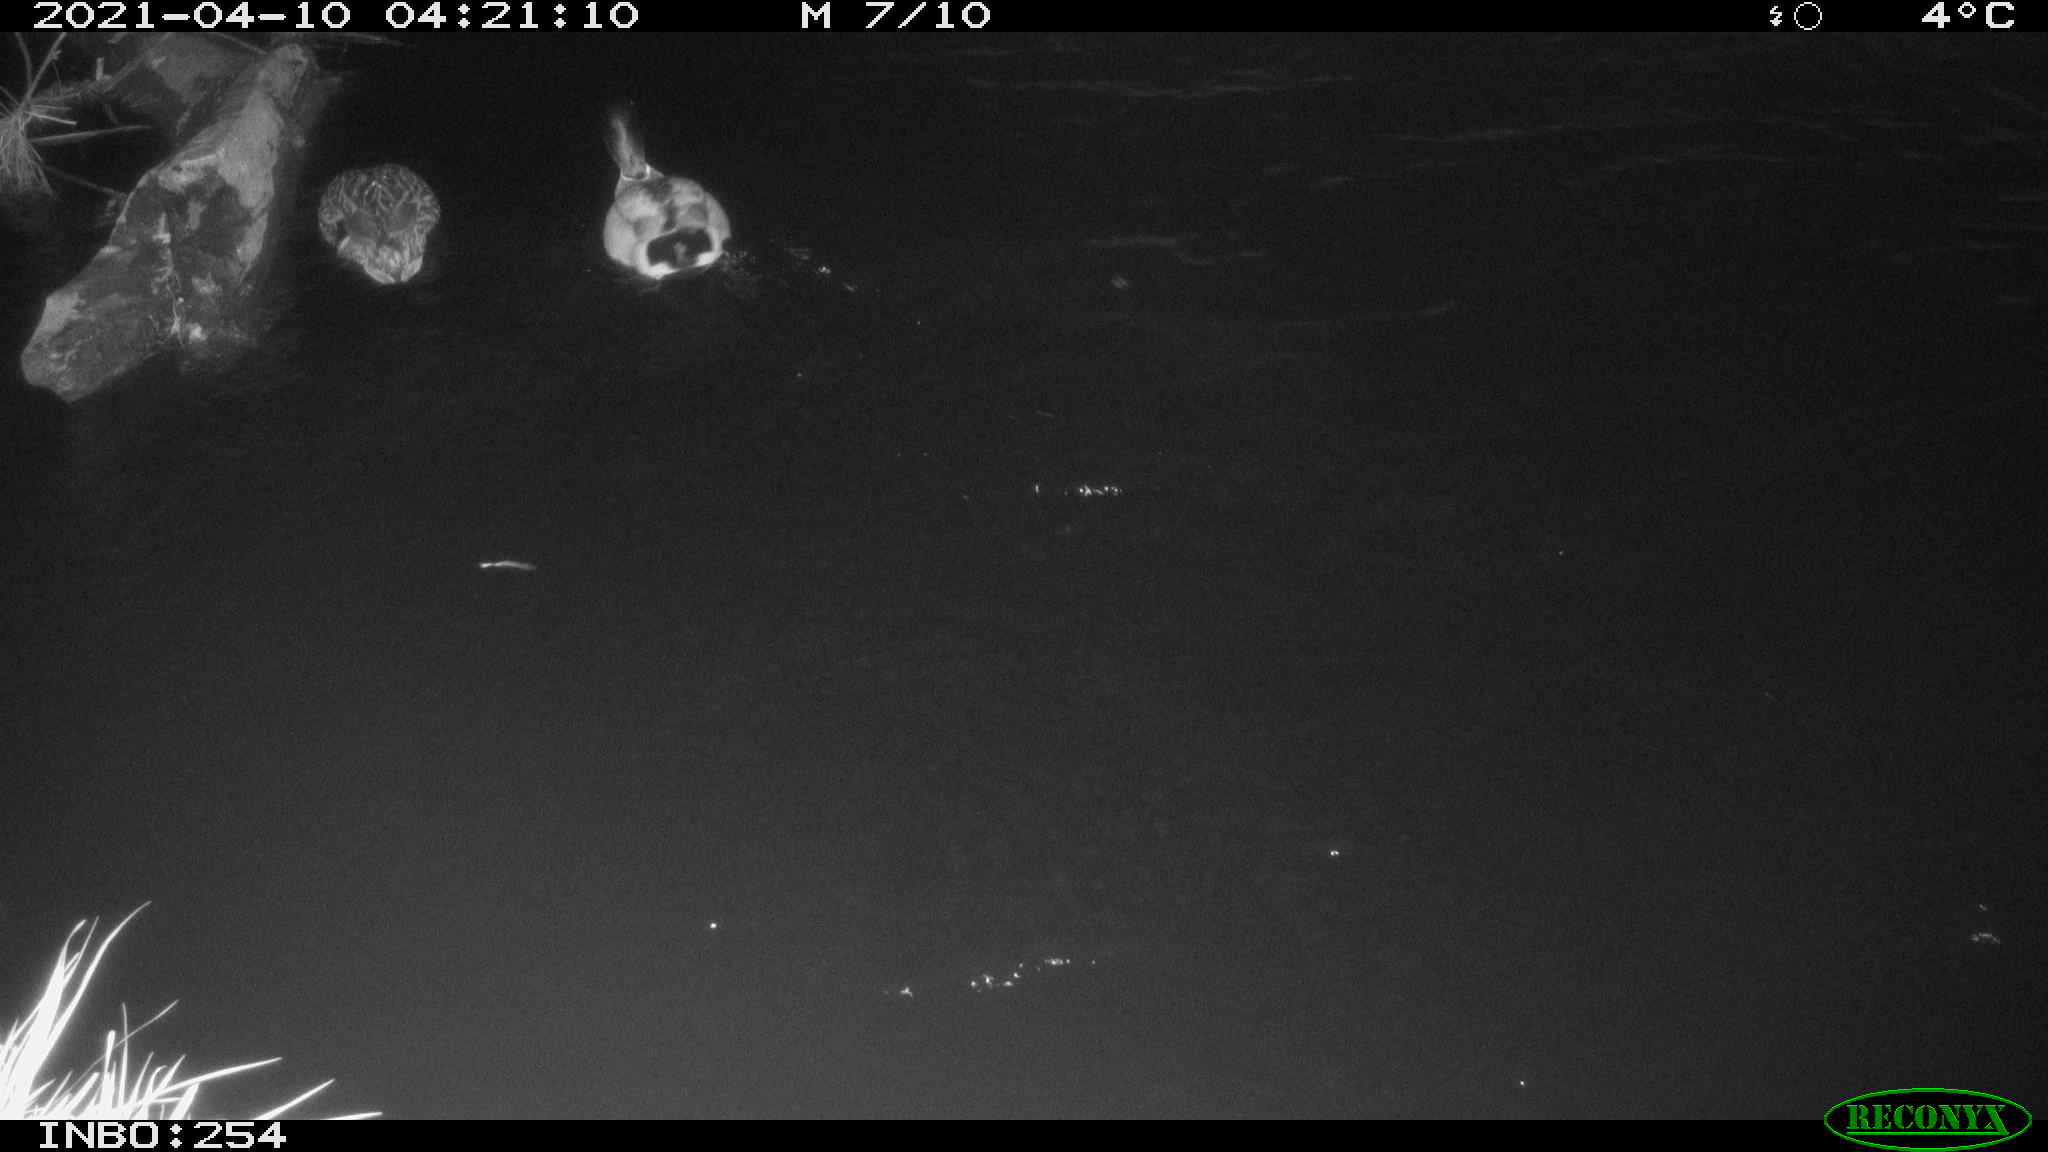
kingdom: Animalia
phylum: Chordata
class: Aves
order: Anseriformes
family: Anatidae
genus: Anas
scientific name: Anas
